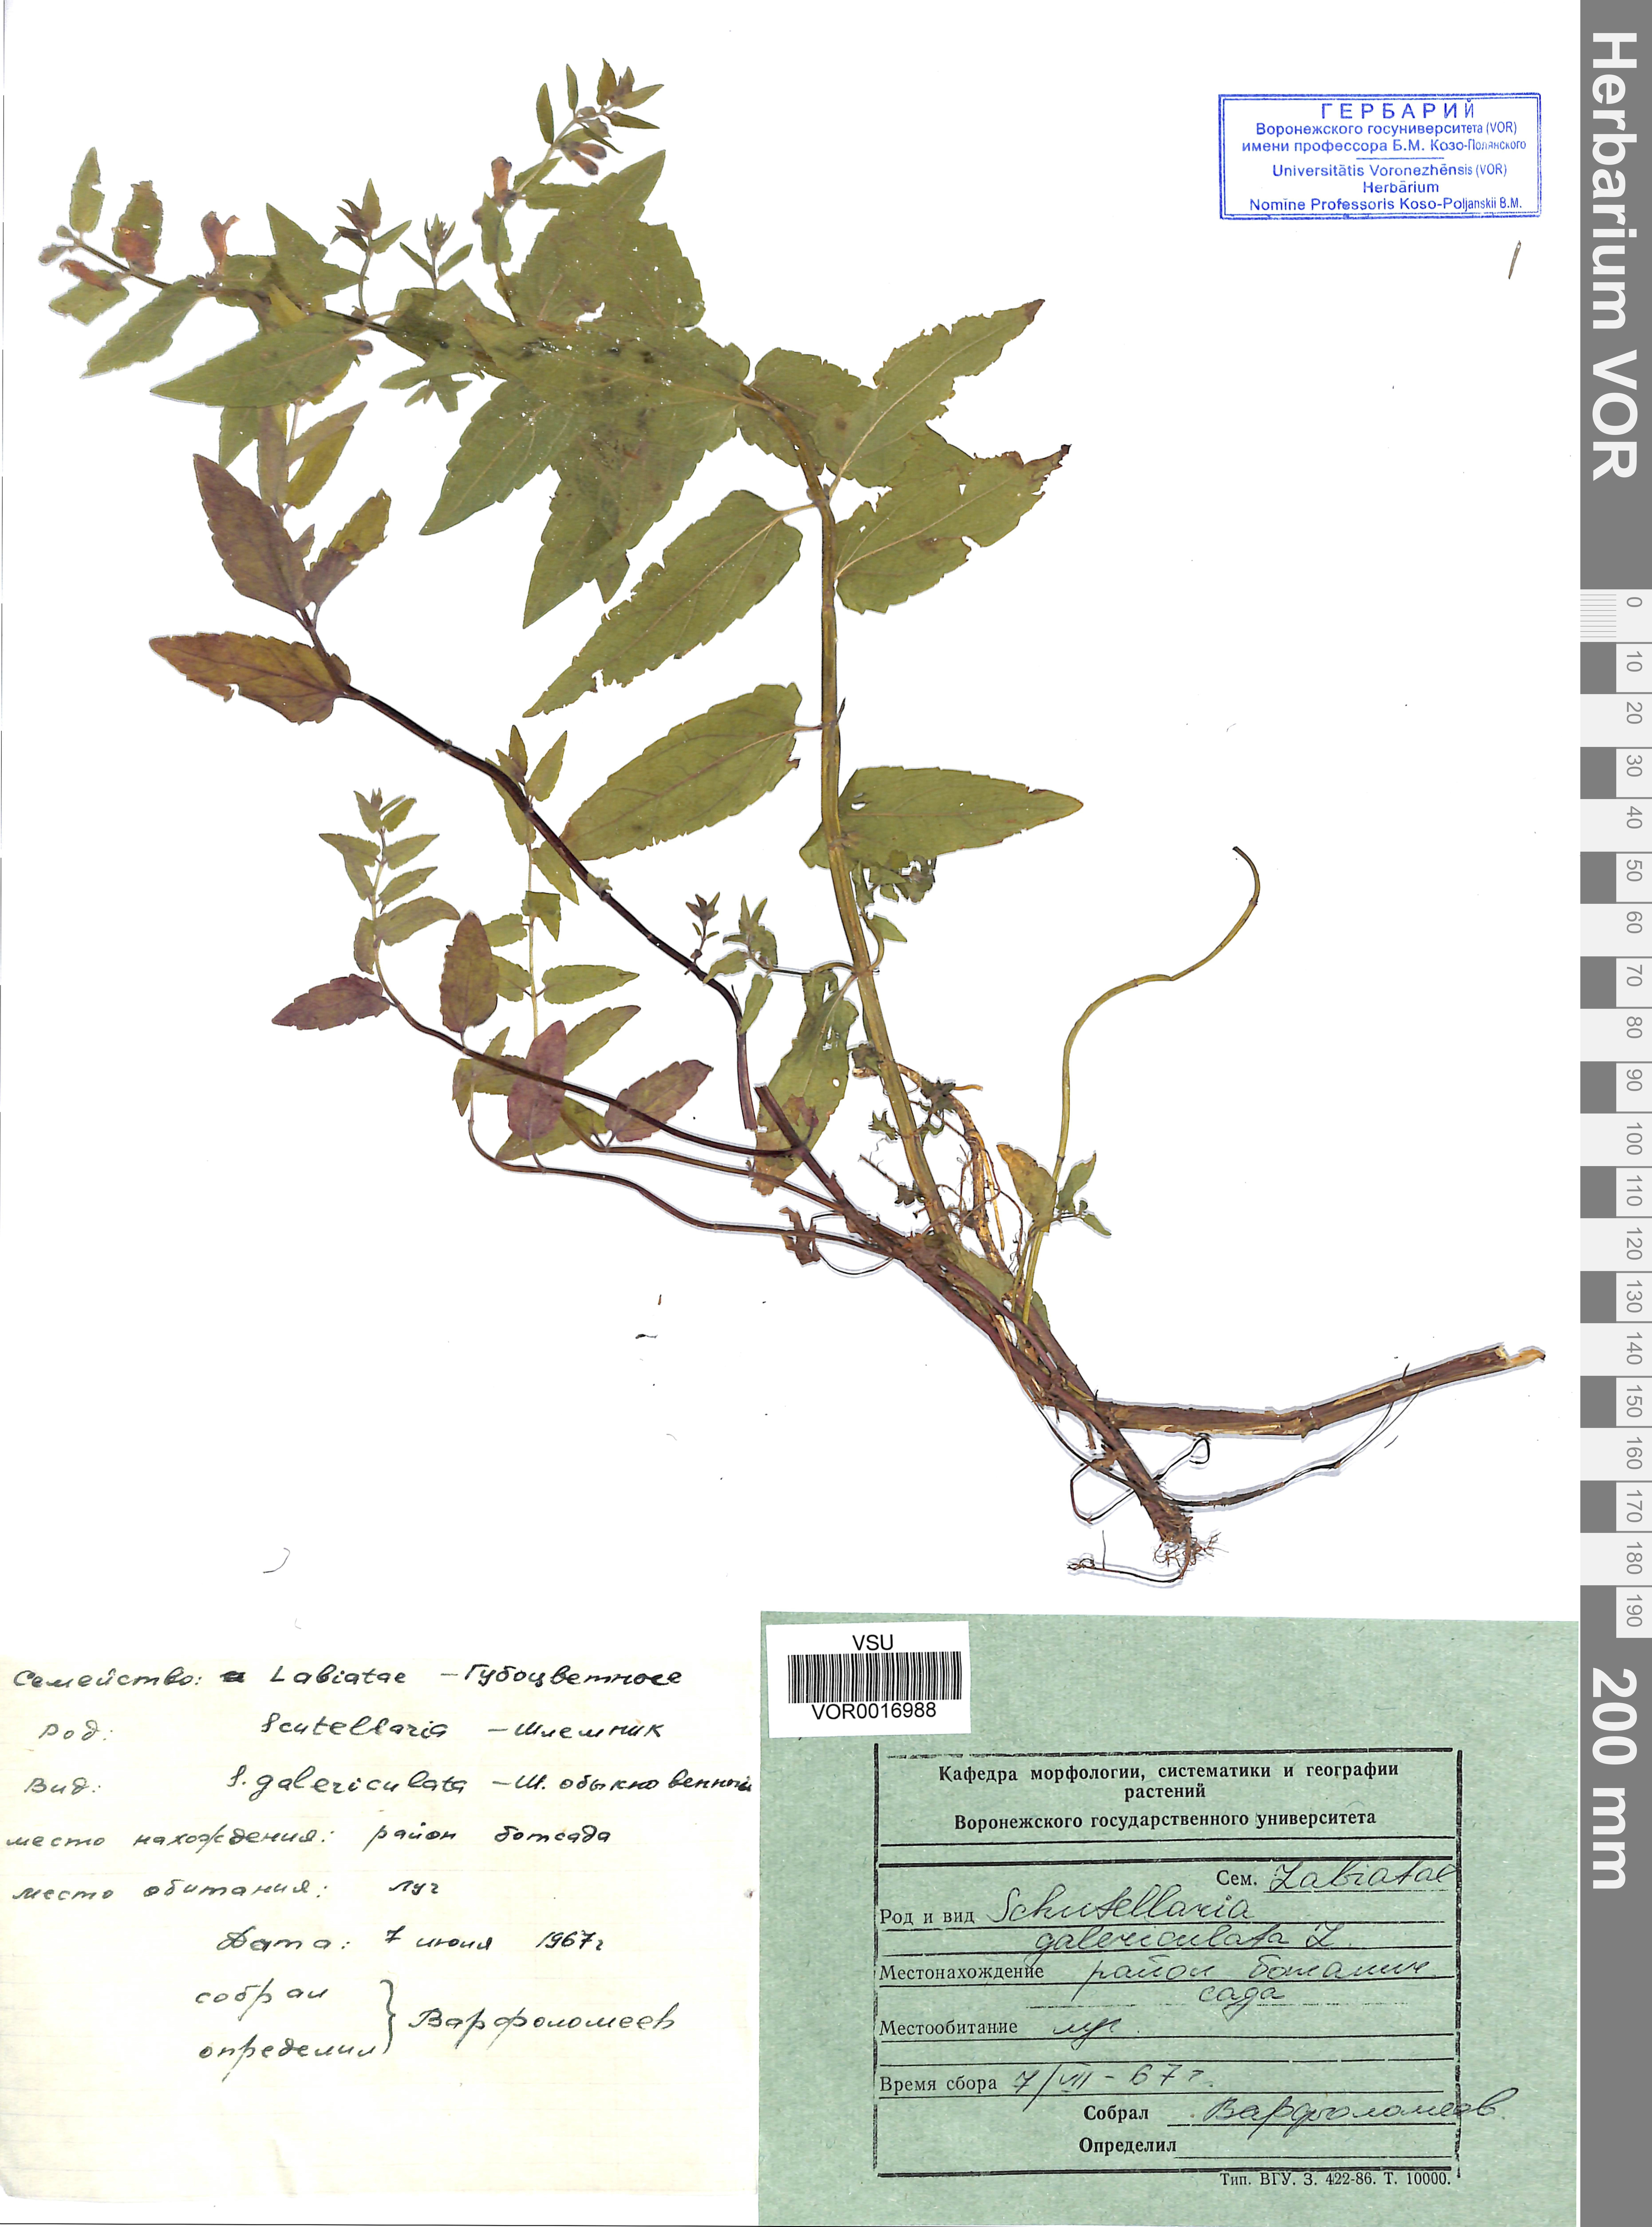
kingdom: Plantae
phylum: Tracheophyta
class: Magnoliopsida
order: Lamiales
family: Lamiaceae
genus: Scutellaria
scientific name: Scutellaria galericulata
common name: Skullcap
